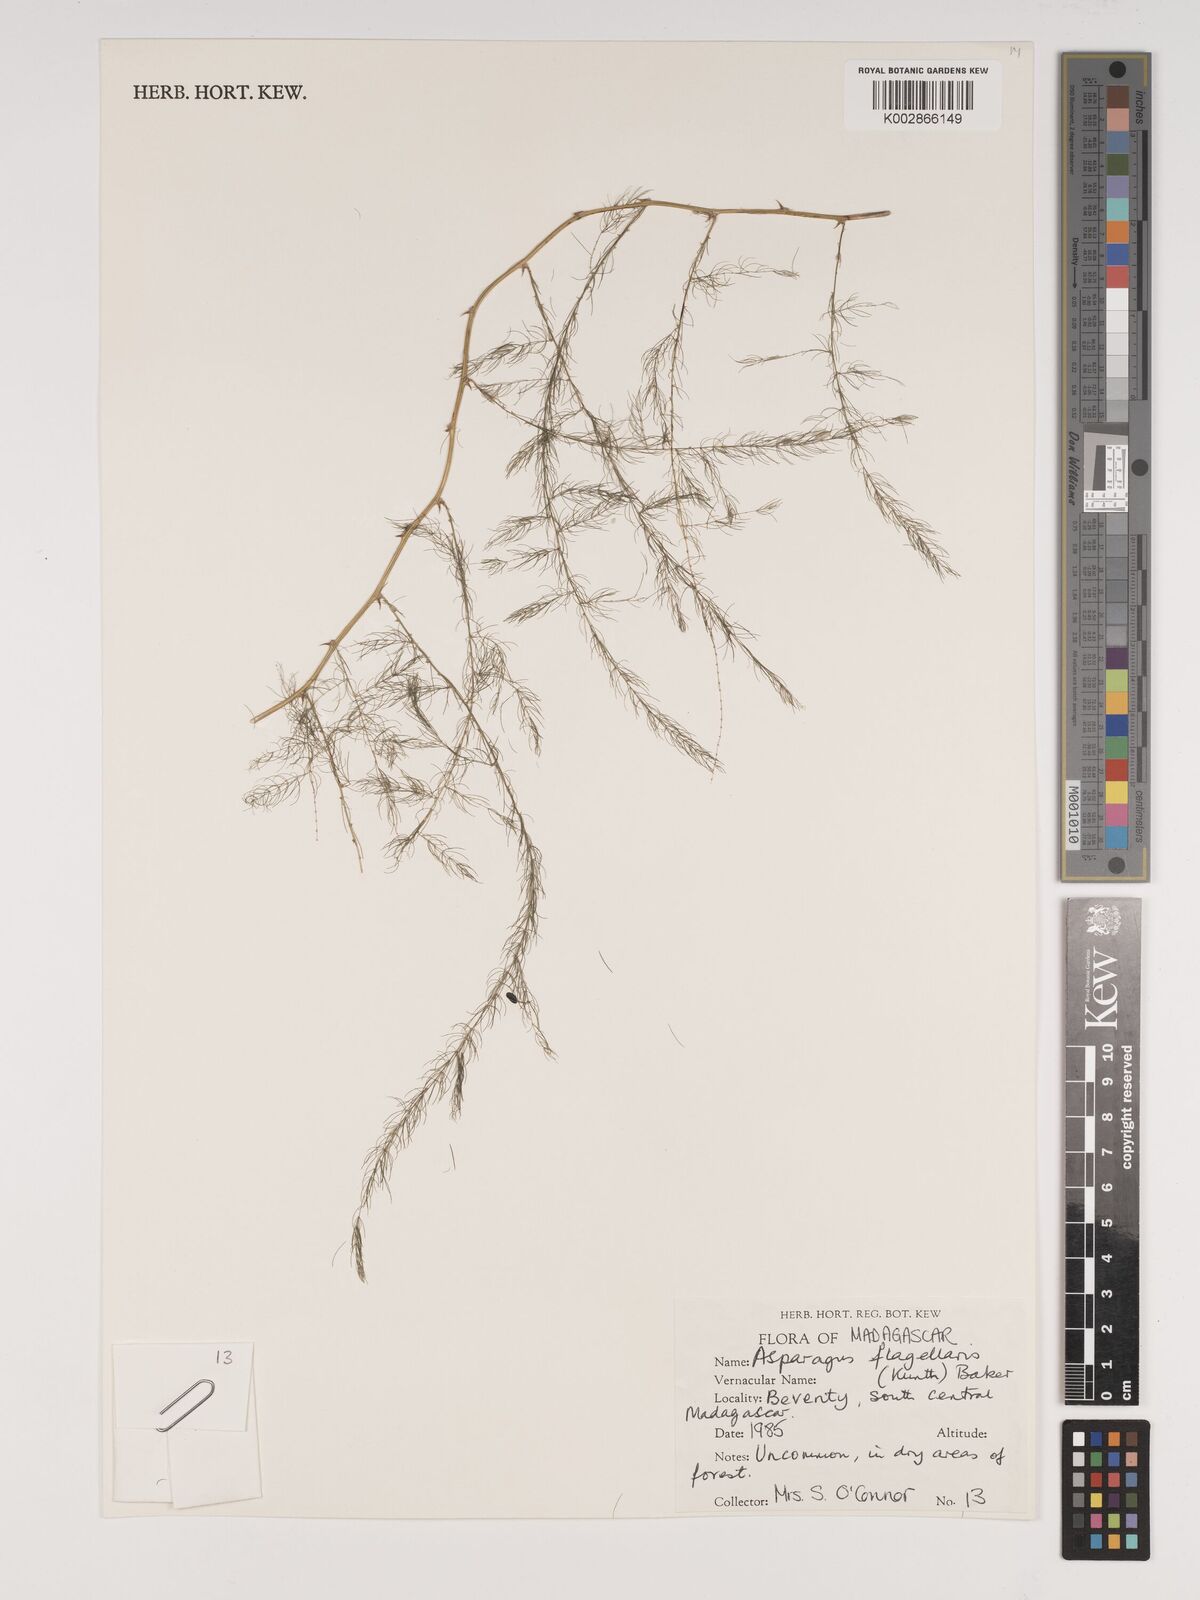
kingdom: Plantae
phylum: Tracheophyta
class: Liliopsida
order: Asparagales
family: Asparagaceae
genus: Asparagus
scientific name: Asparagus flagellaris
